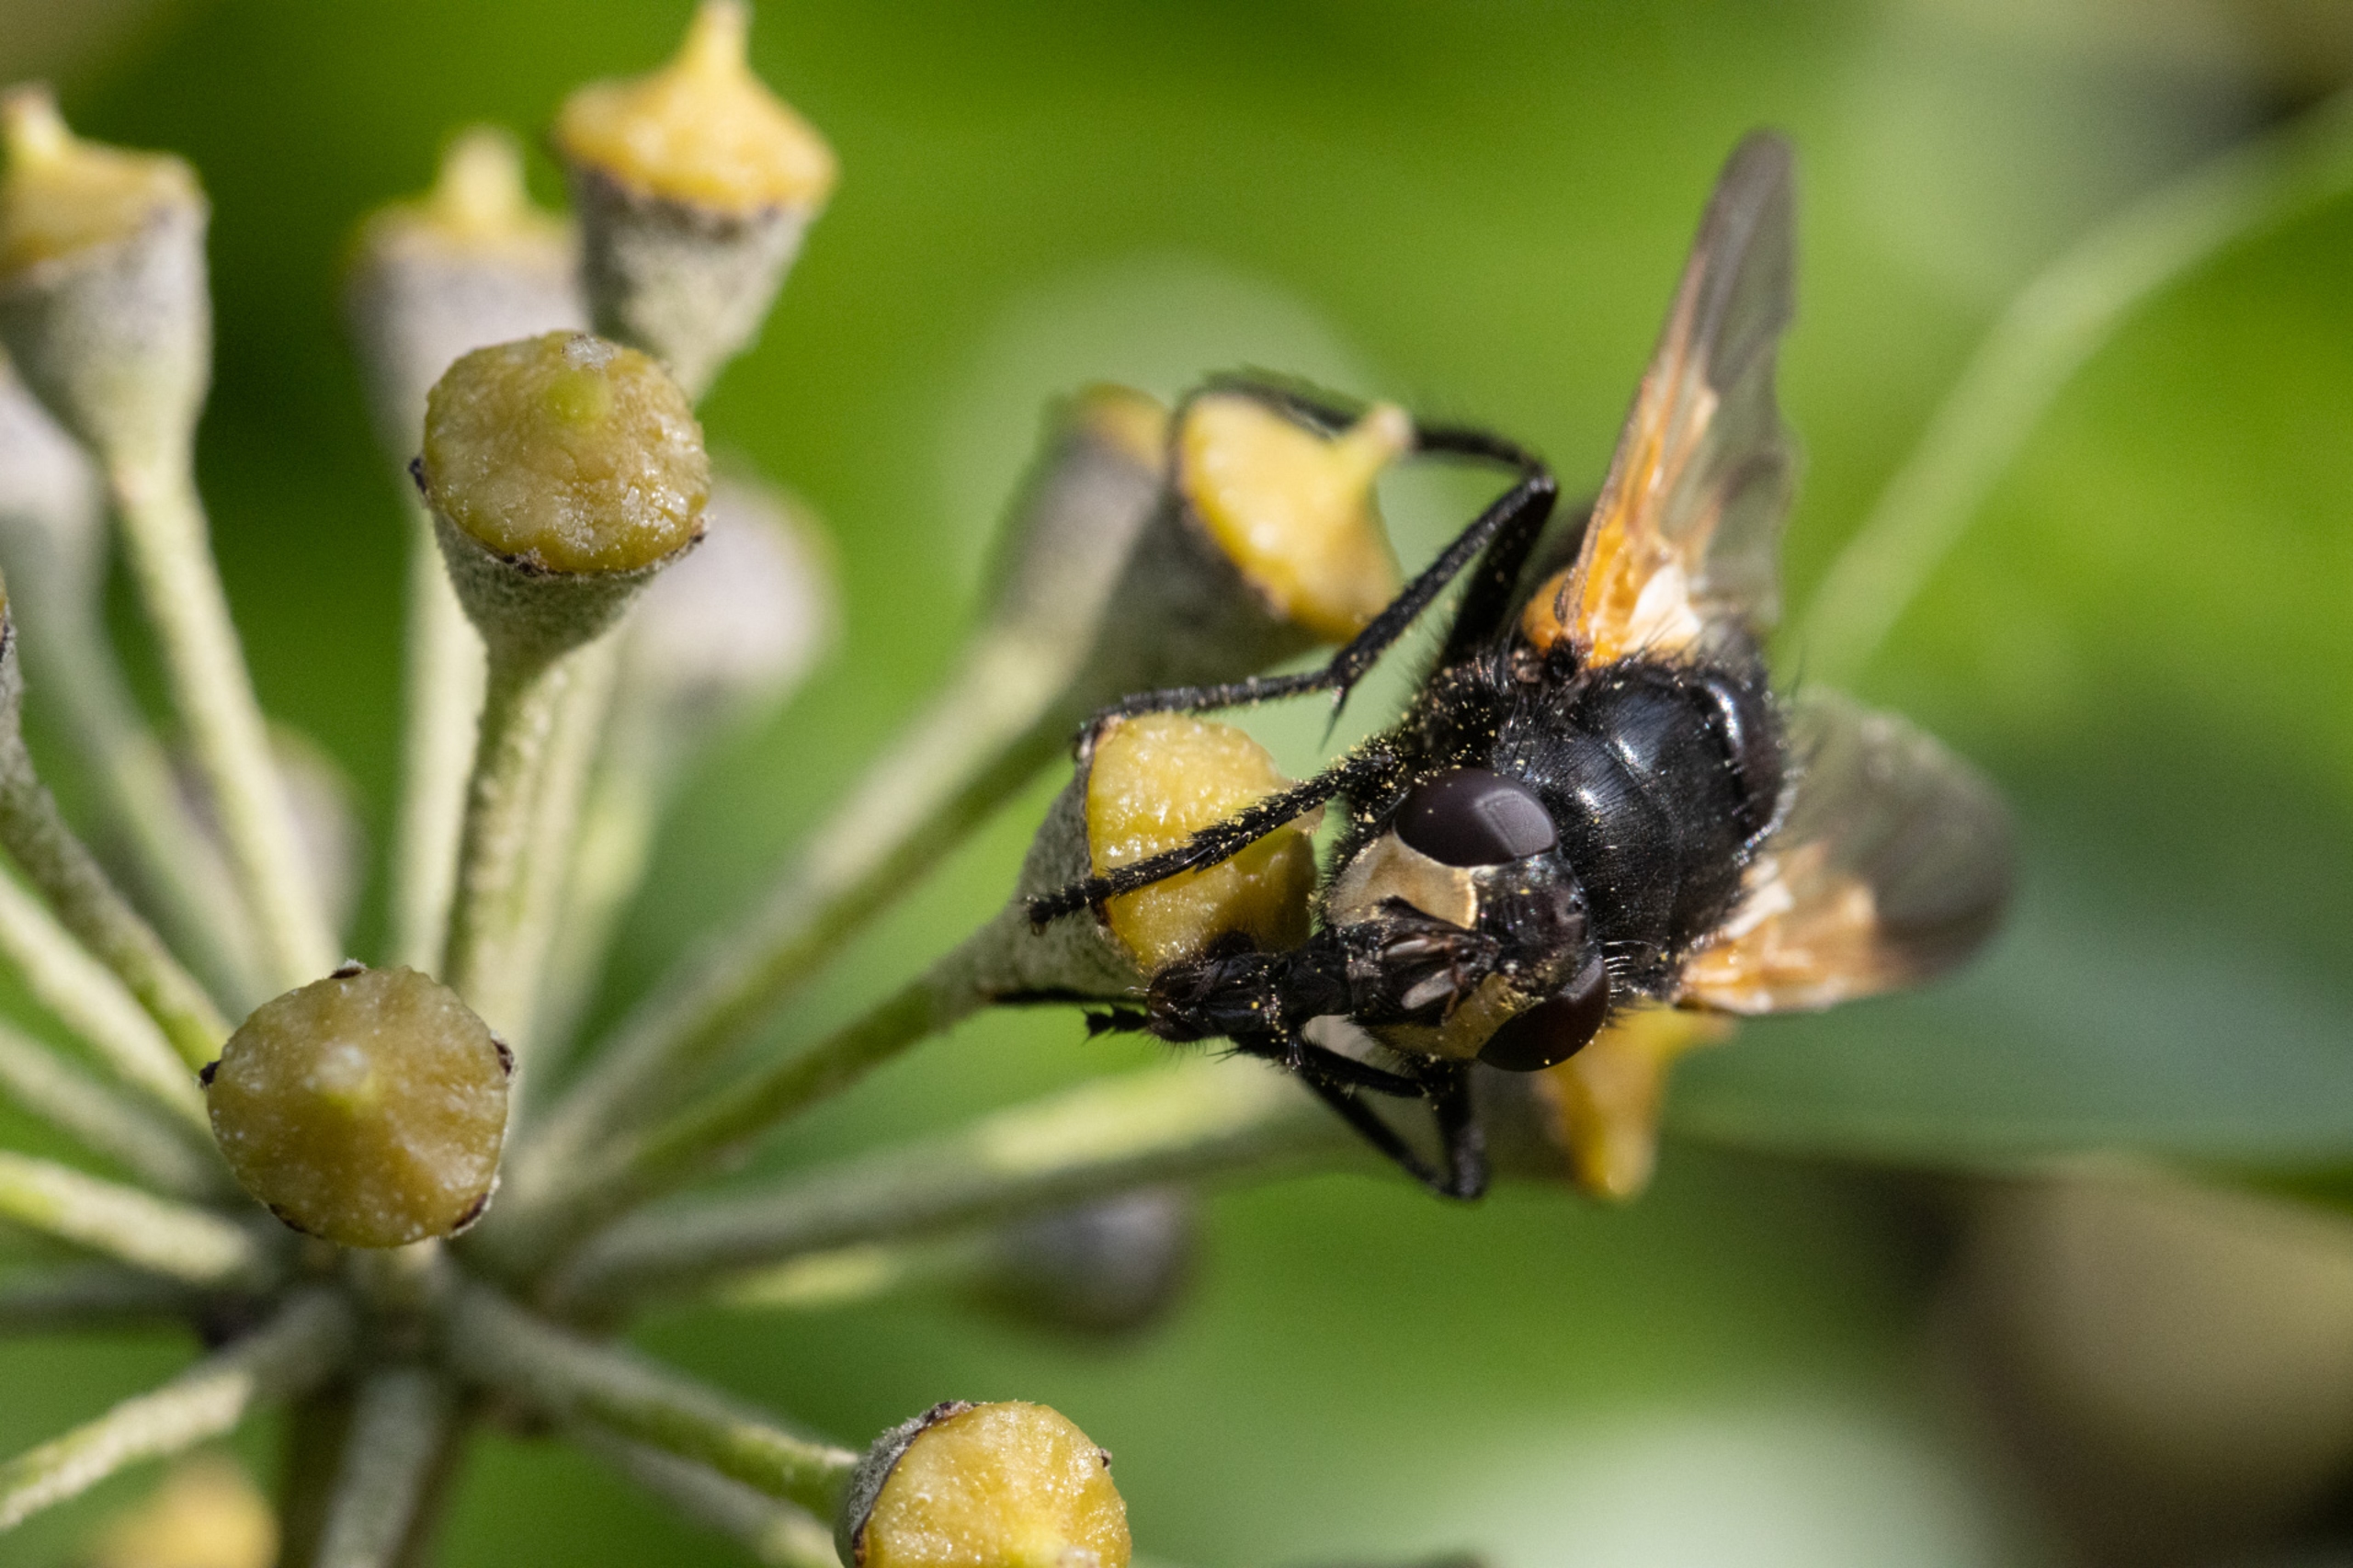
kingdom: Animalia
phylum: Arthropoda
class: Insecta
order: Diptera
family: Muscidae
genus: Mesembrina
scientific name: Mesembrina meridiana
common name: Gulvinget flue
